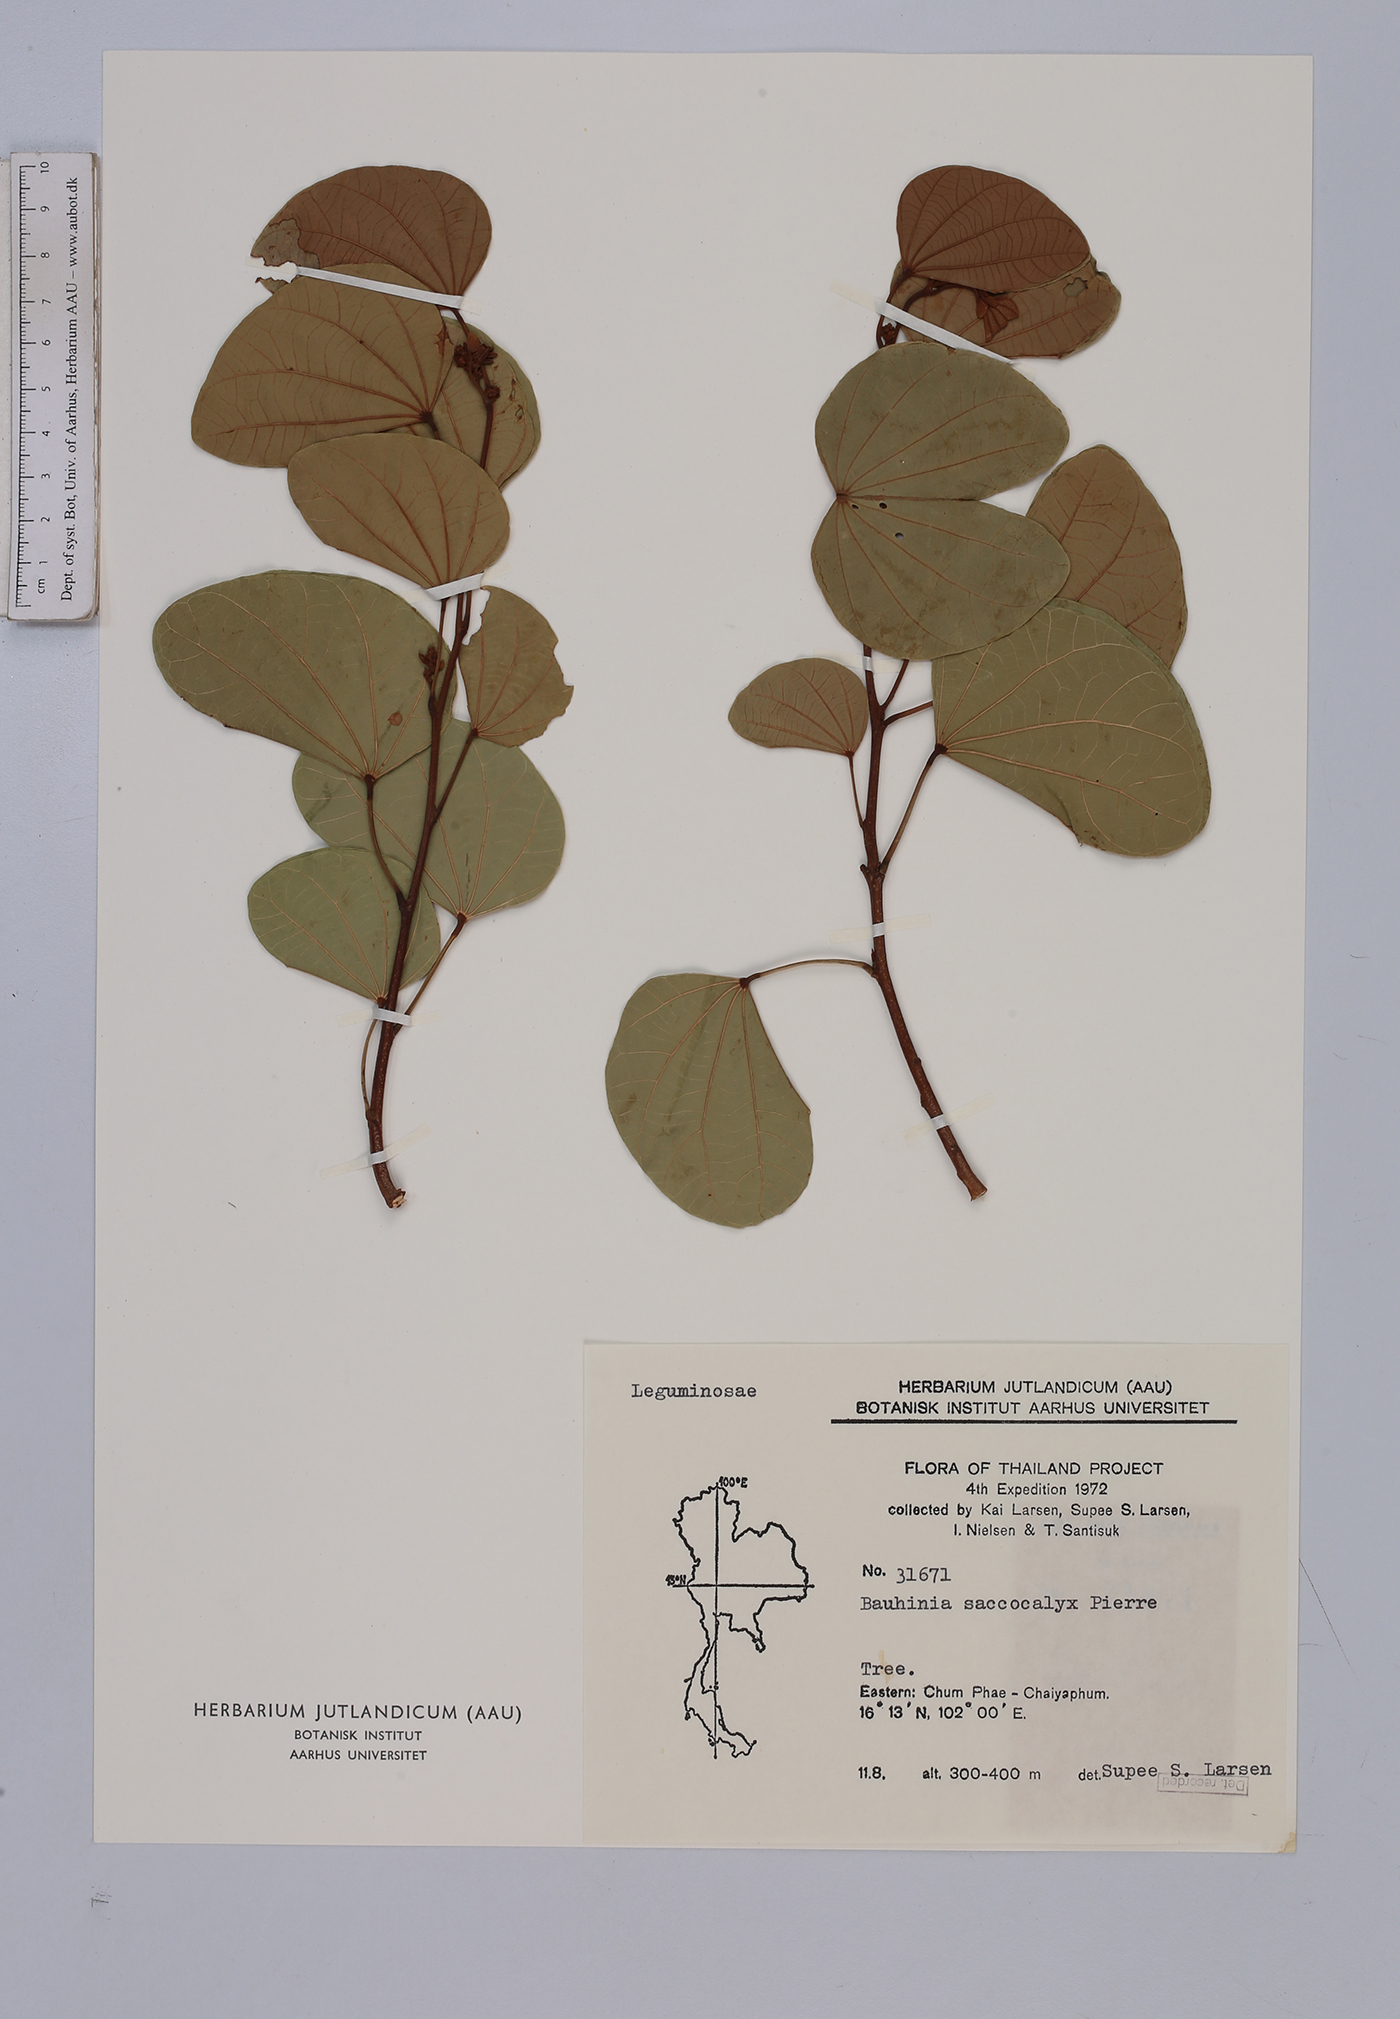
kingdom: Plantae
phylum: Tracheophyta
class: Magnoliopsida
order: Fabales
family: Fabaceae
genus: Bauhinia
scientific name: Bauhinia saccocalyx
